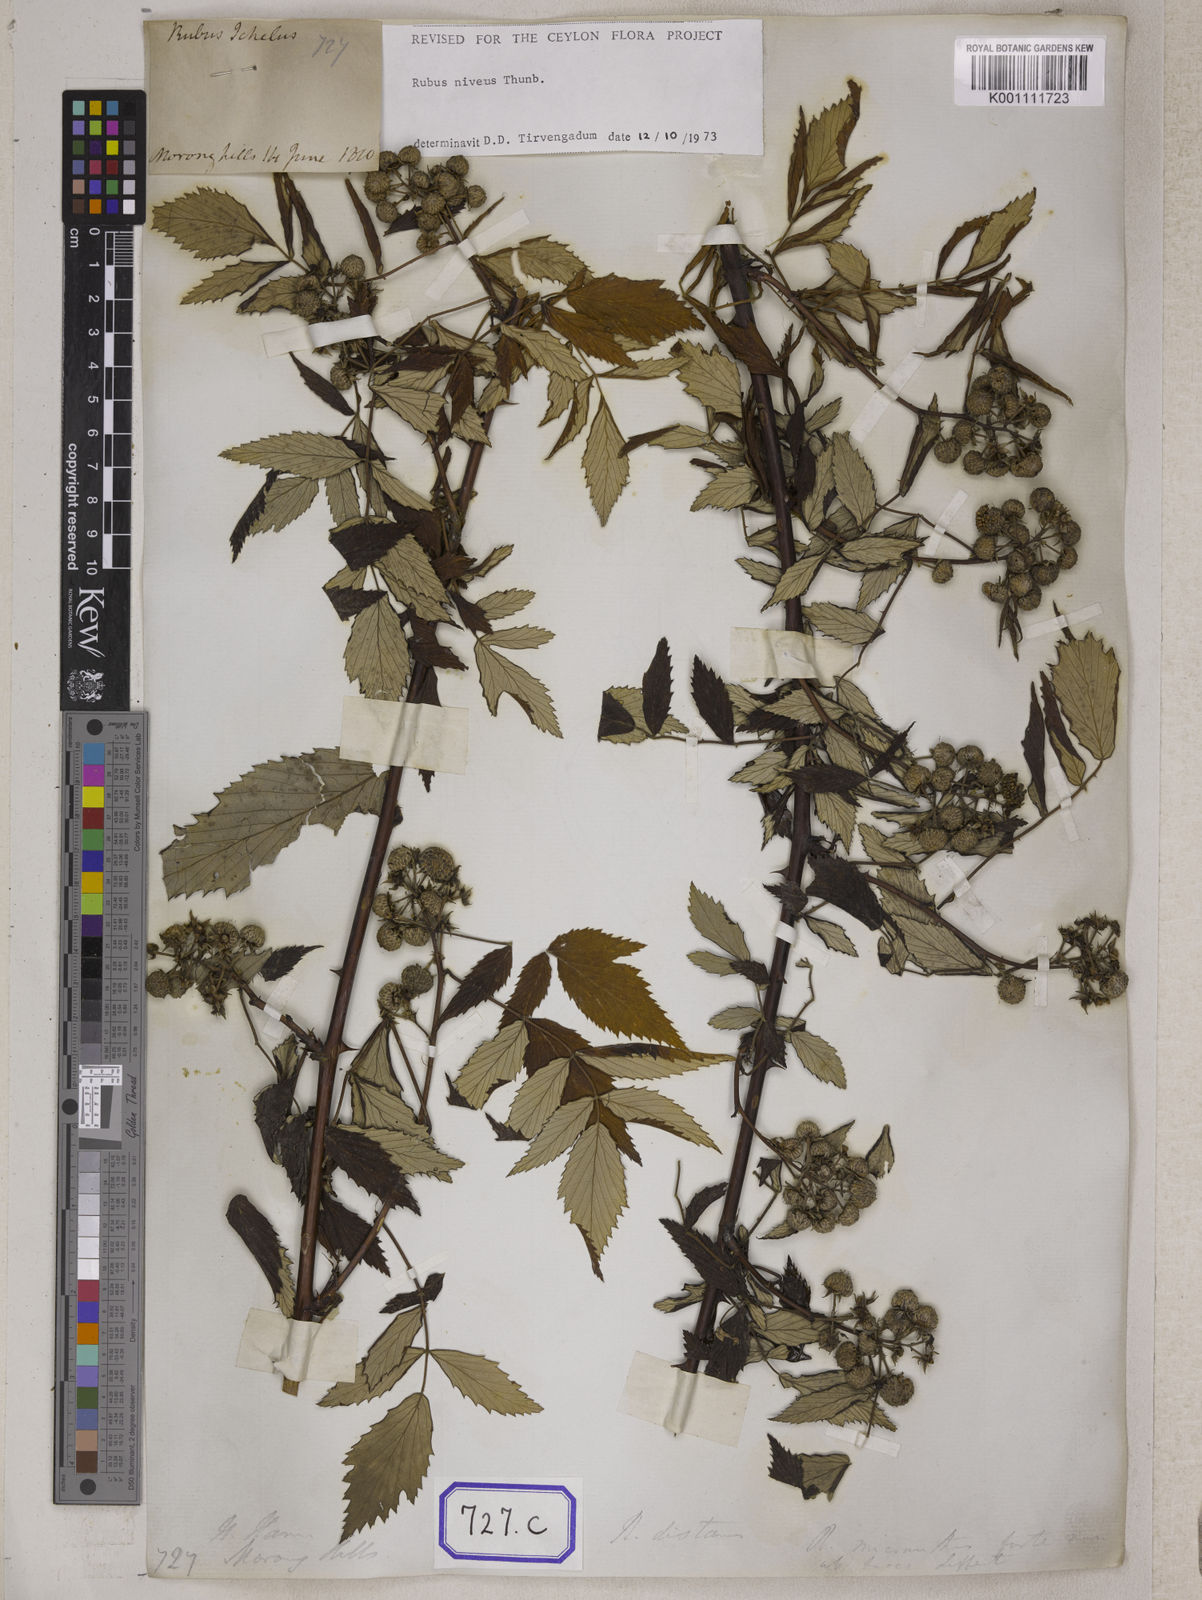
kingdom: Plantae
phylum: Tracheophyta
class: Magnoliopsida
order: Rosales
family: Rosaceae
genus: Rubus
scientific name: Rubus
